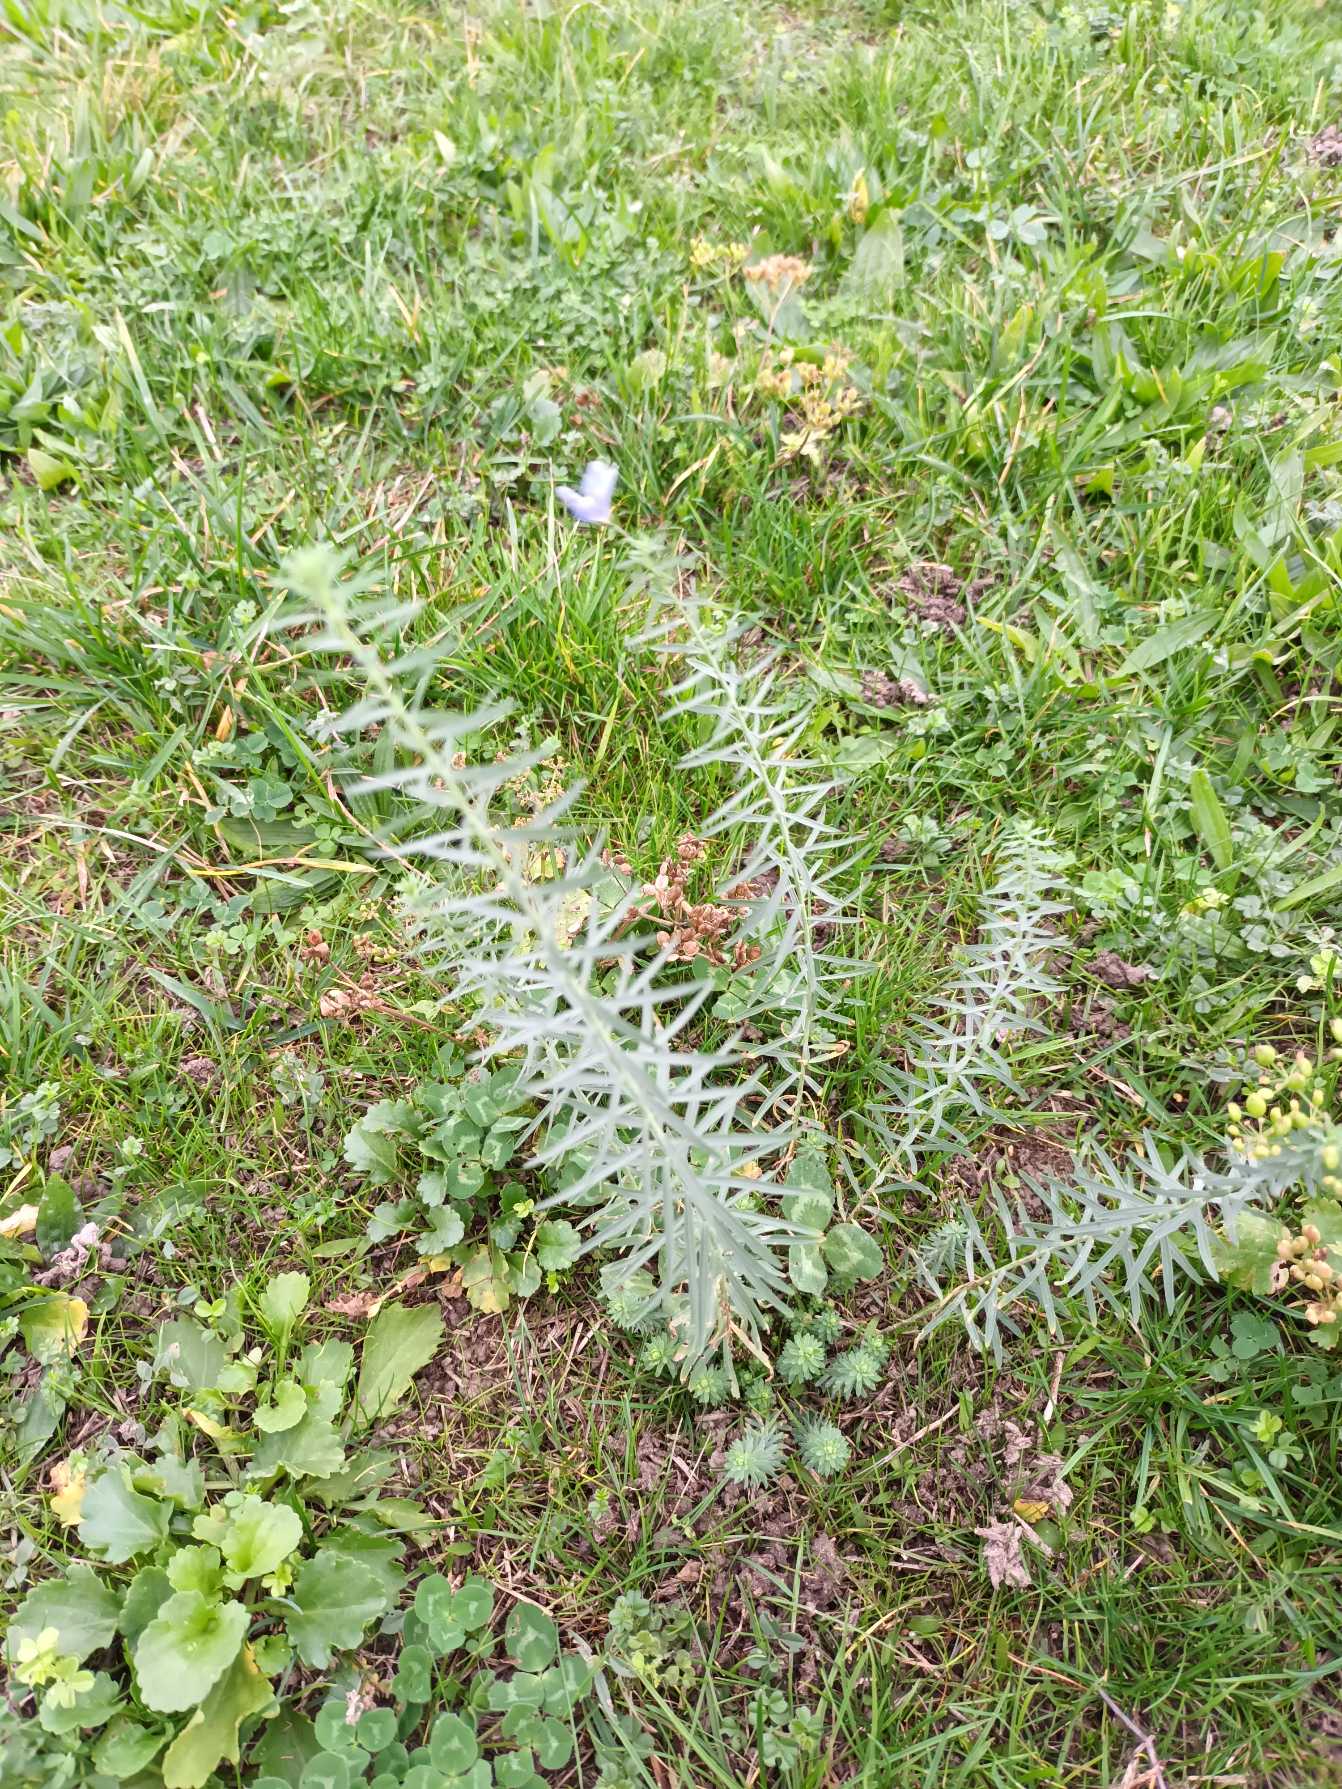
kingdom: Plantae
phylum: Tracheophyta
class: Magnoliopsida
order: Malpighiales
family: Linaceae
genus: Linum
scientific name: Linum austriacum
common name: Østrigsk hør
